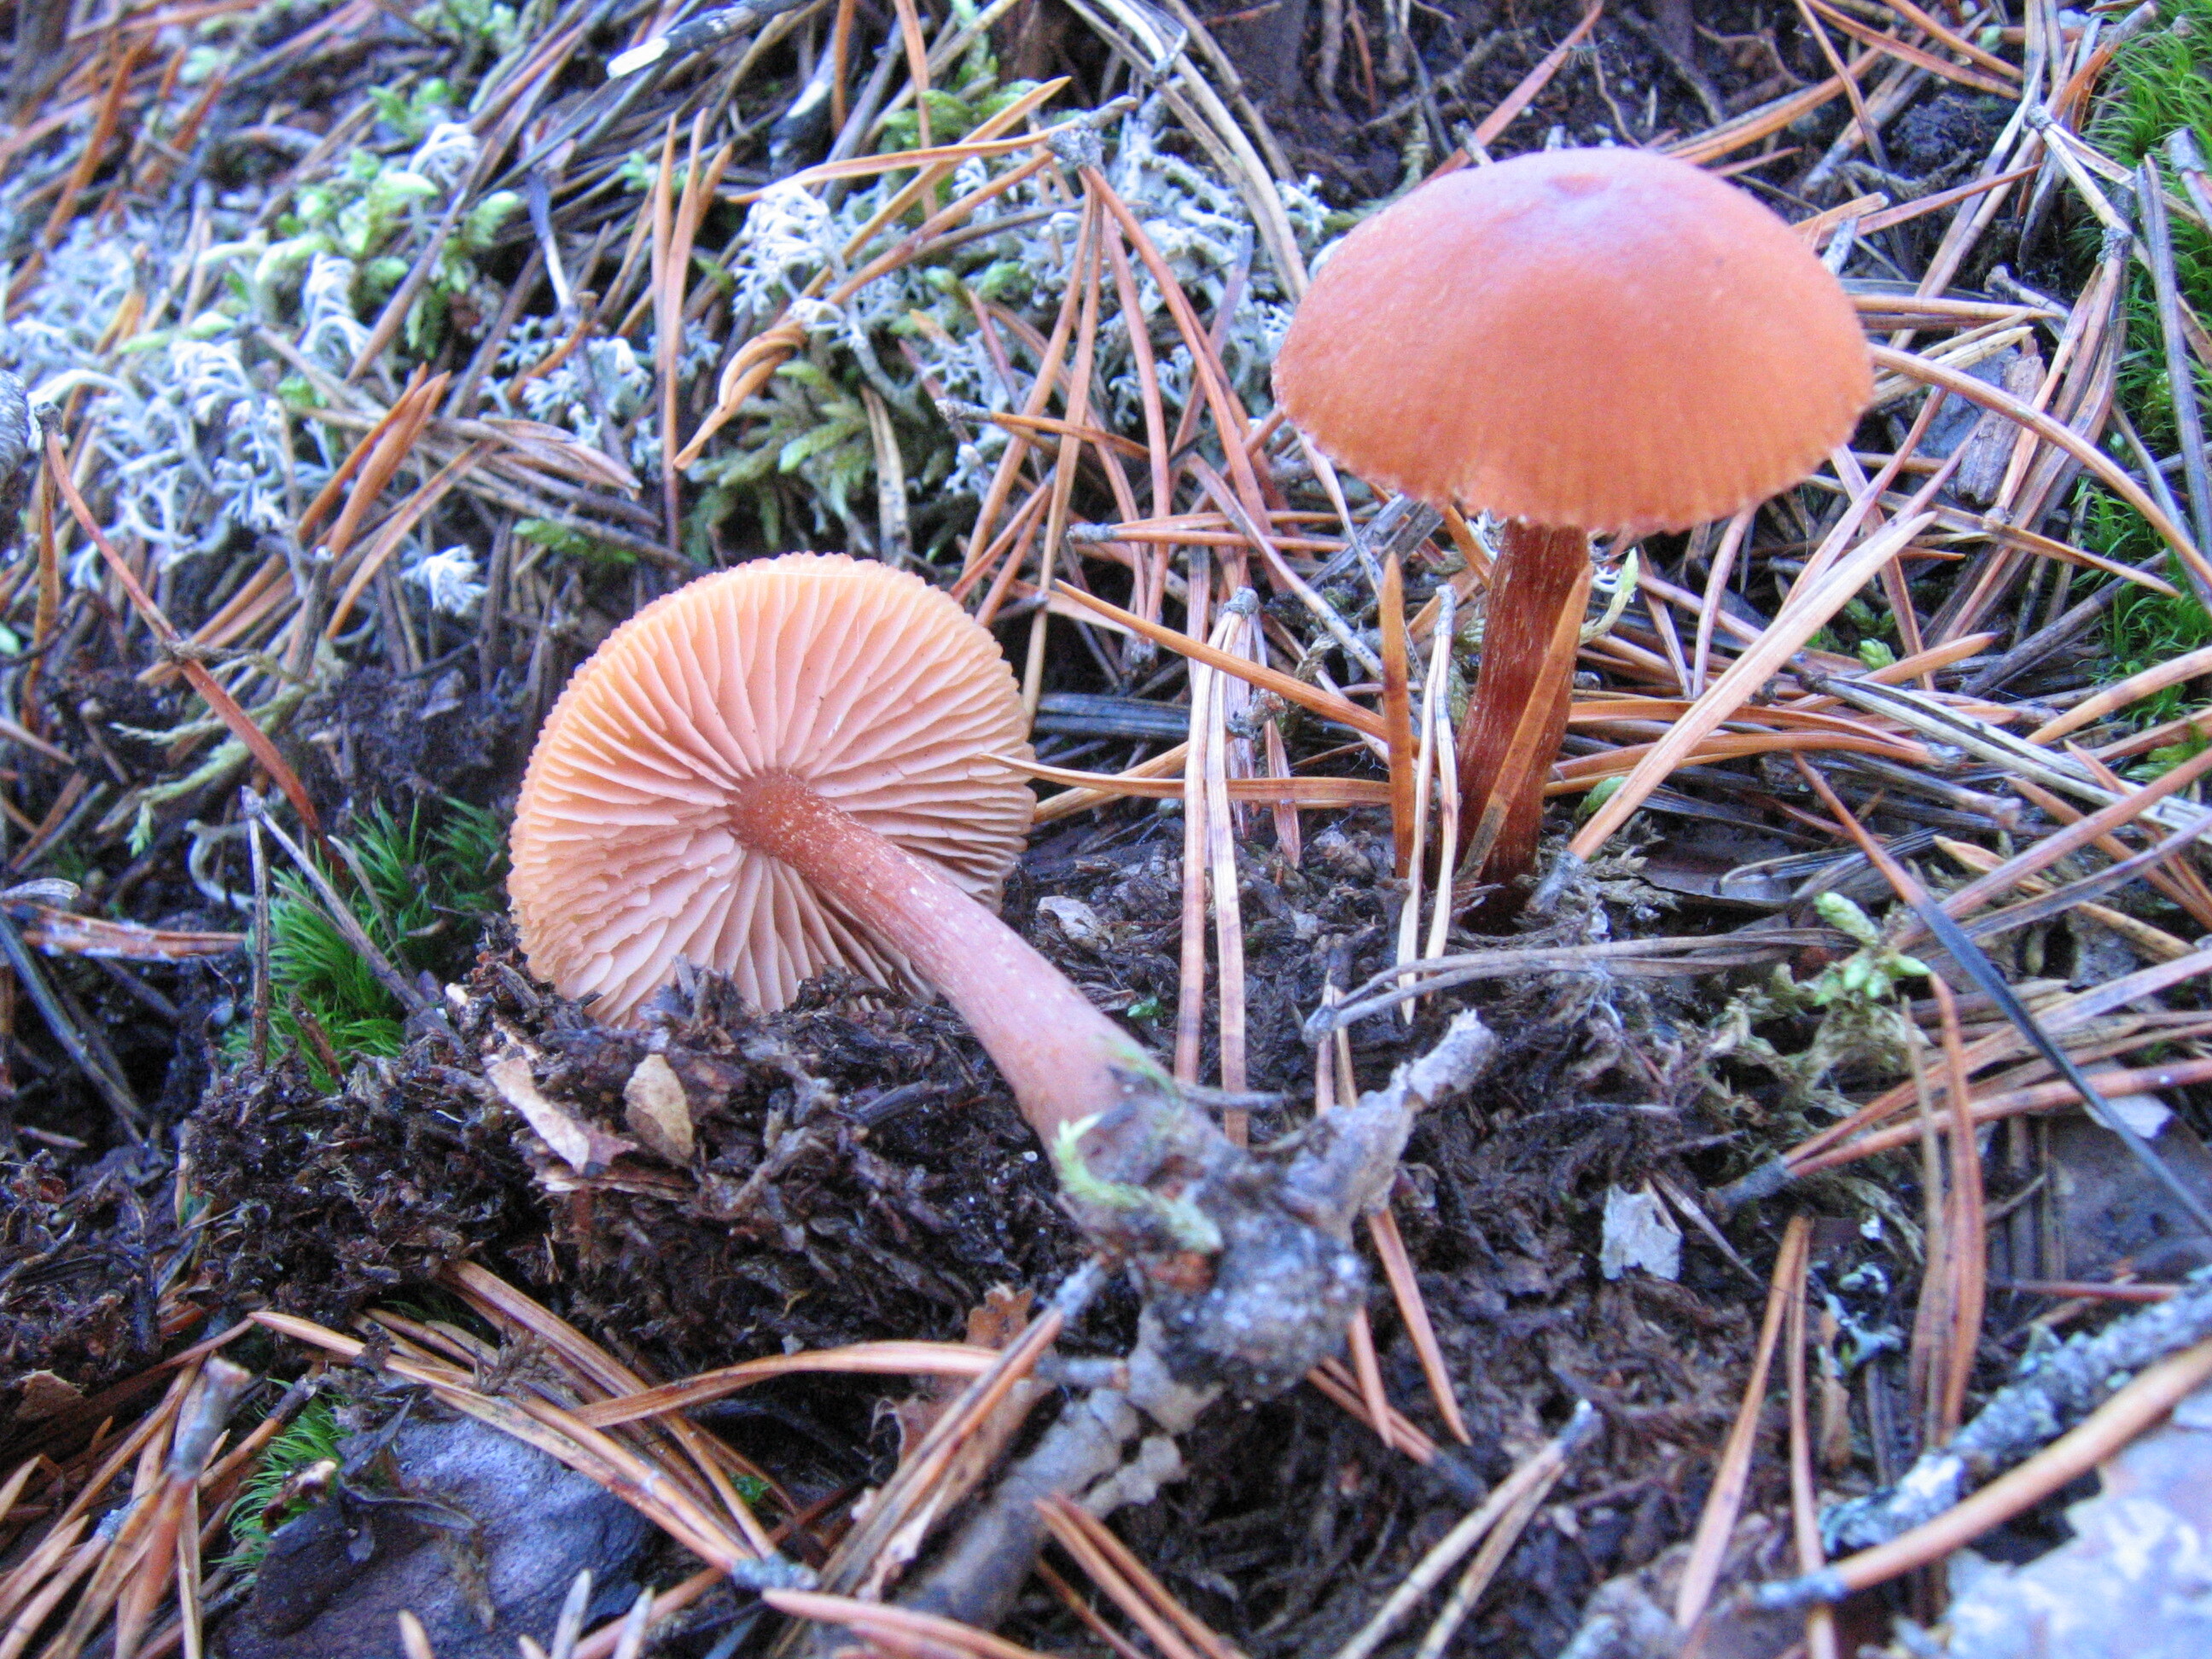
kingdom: Fungi
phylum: Basidiomycota
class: Agaricomycetes
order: Agaricales
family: Hydnangiaceae
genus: Laccaria
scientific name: Laccaria
